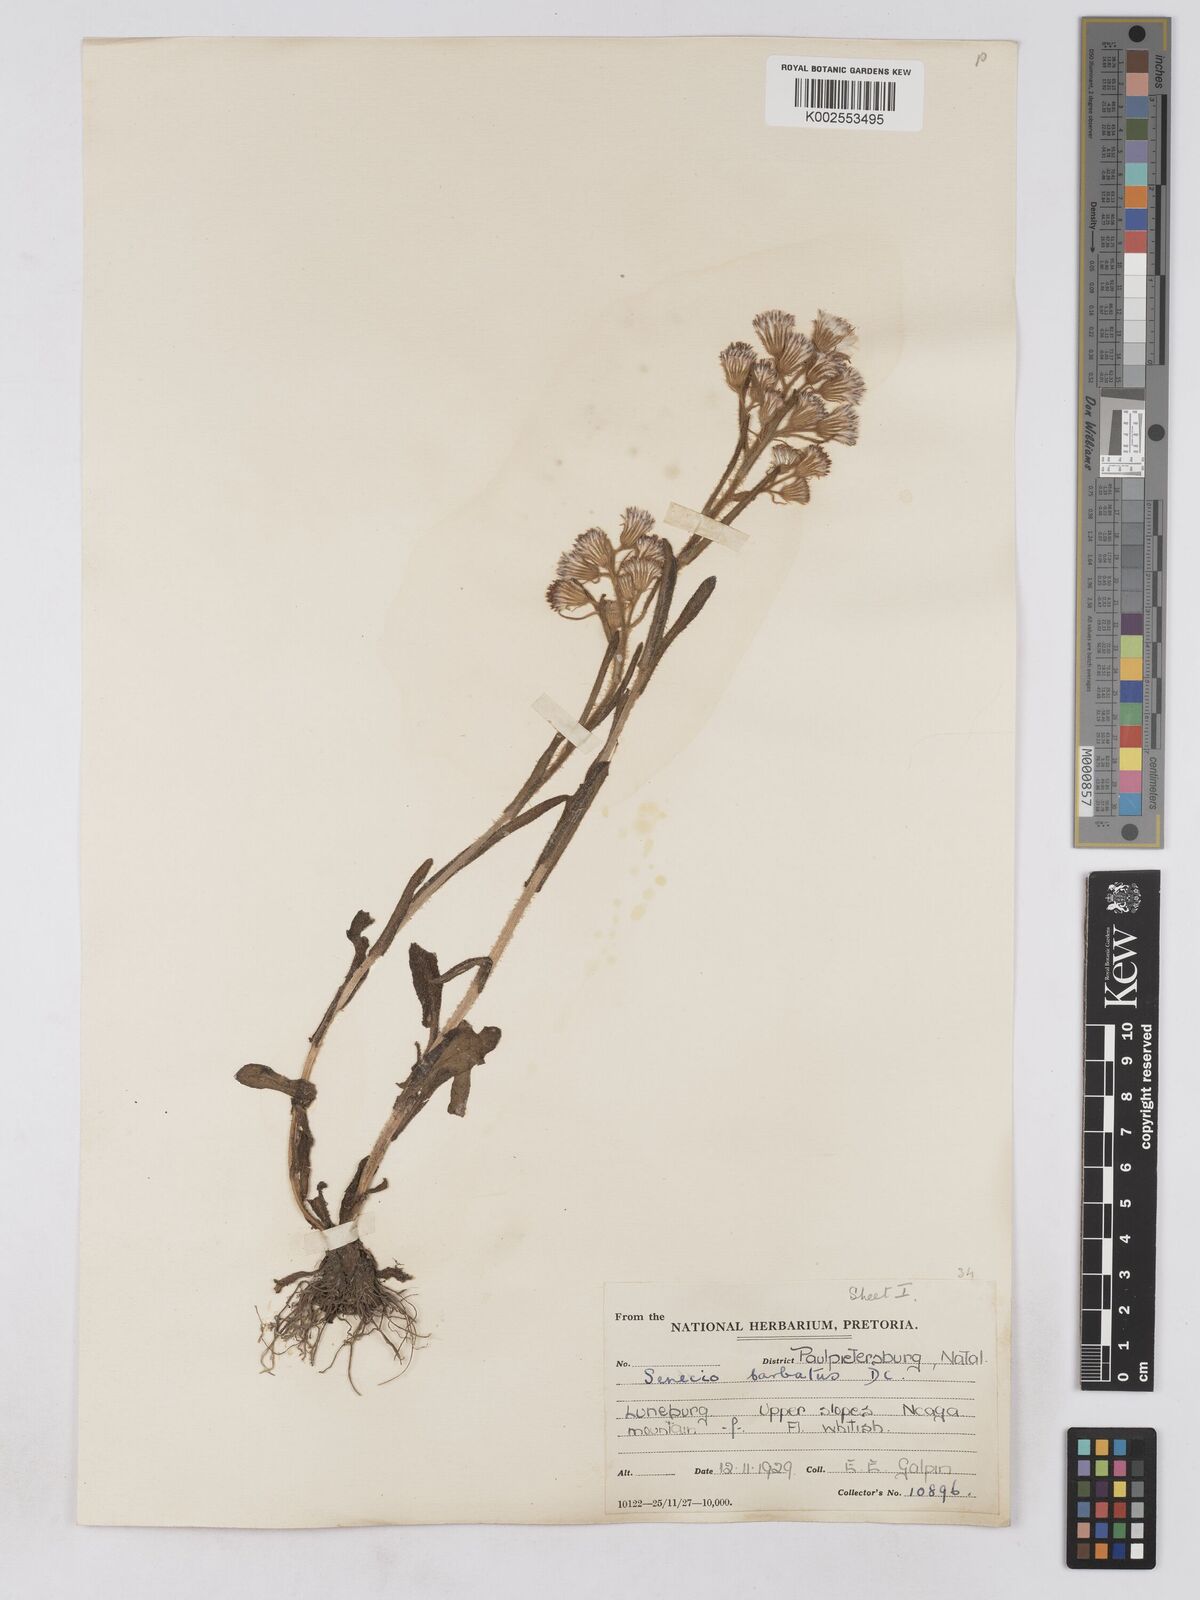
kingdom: Plantae
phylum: Tracheophyta
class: Magnoliopsida
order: Asterales
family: Asteraceae
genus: Senecio
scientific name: Senecio barbatus
